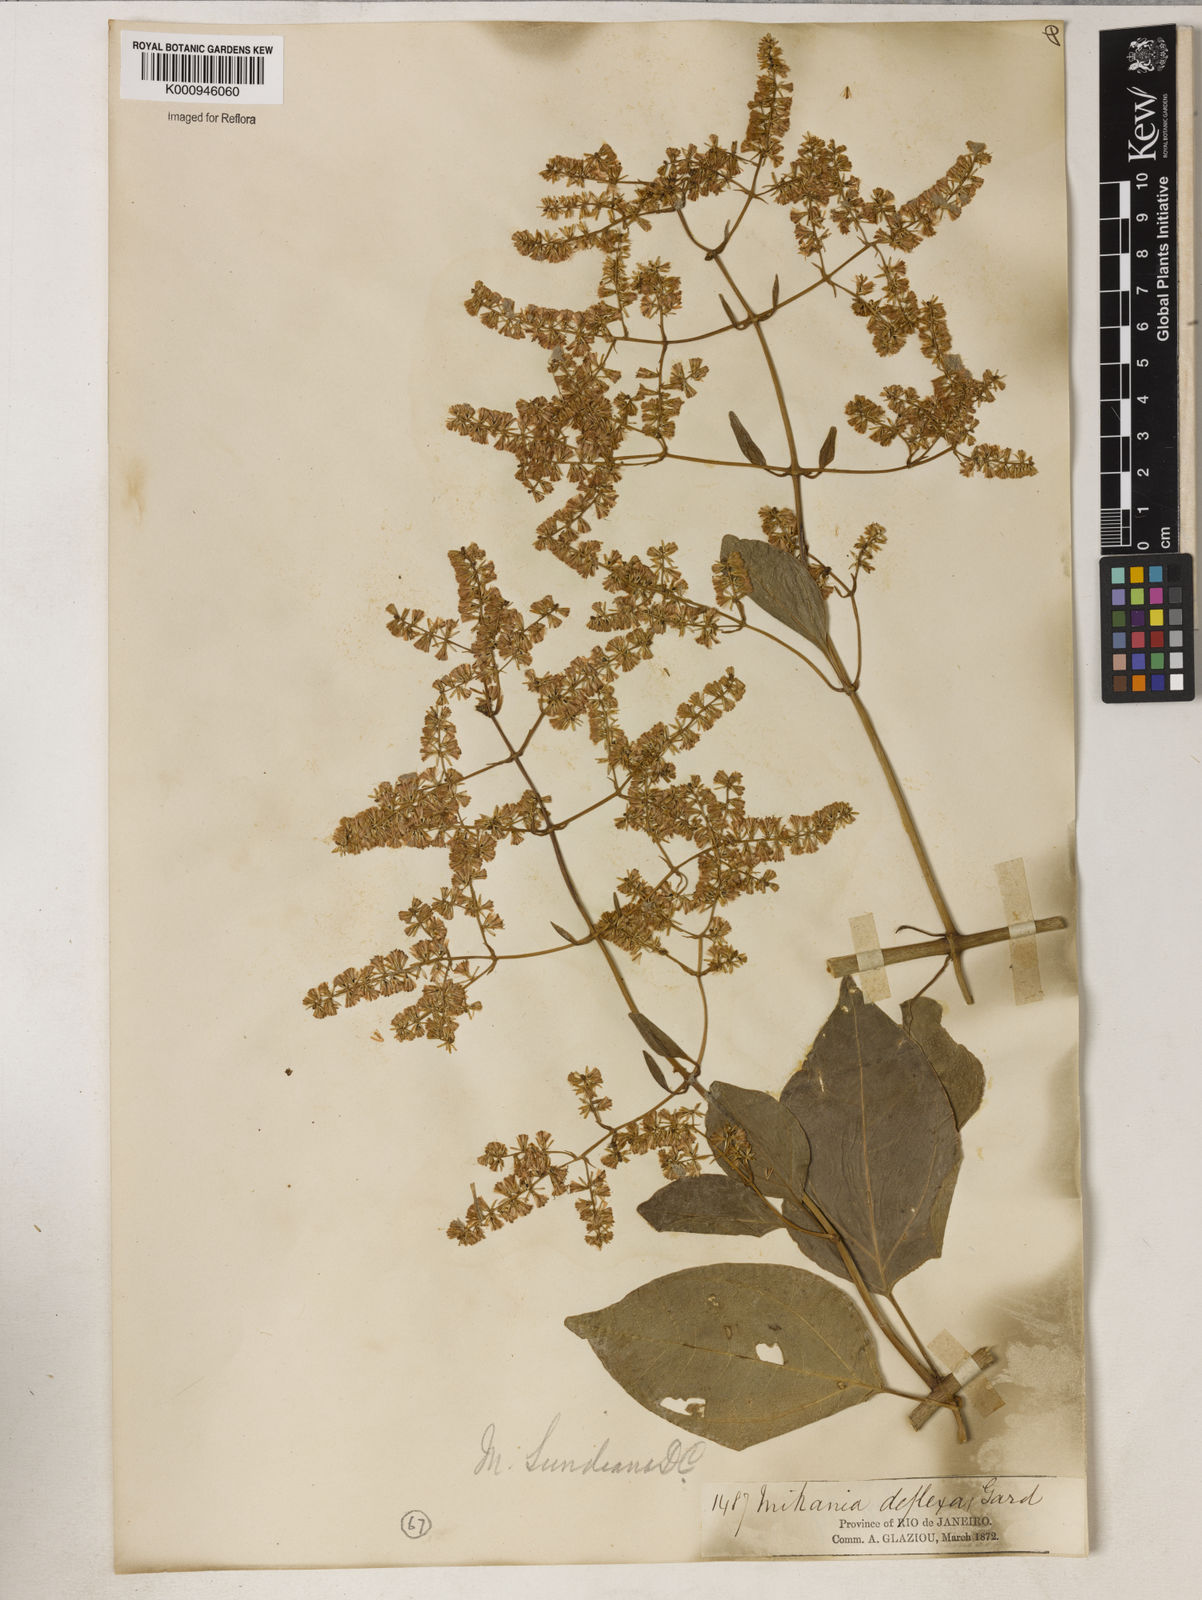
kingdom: Plantae
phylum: Tracheophyta
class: Magnoliopsida
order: Asterales
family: Asteraceae
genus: Mikania
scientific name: Mikania lundiana
